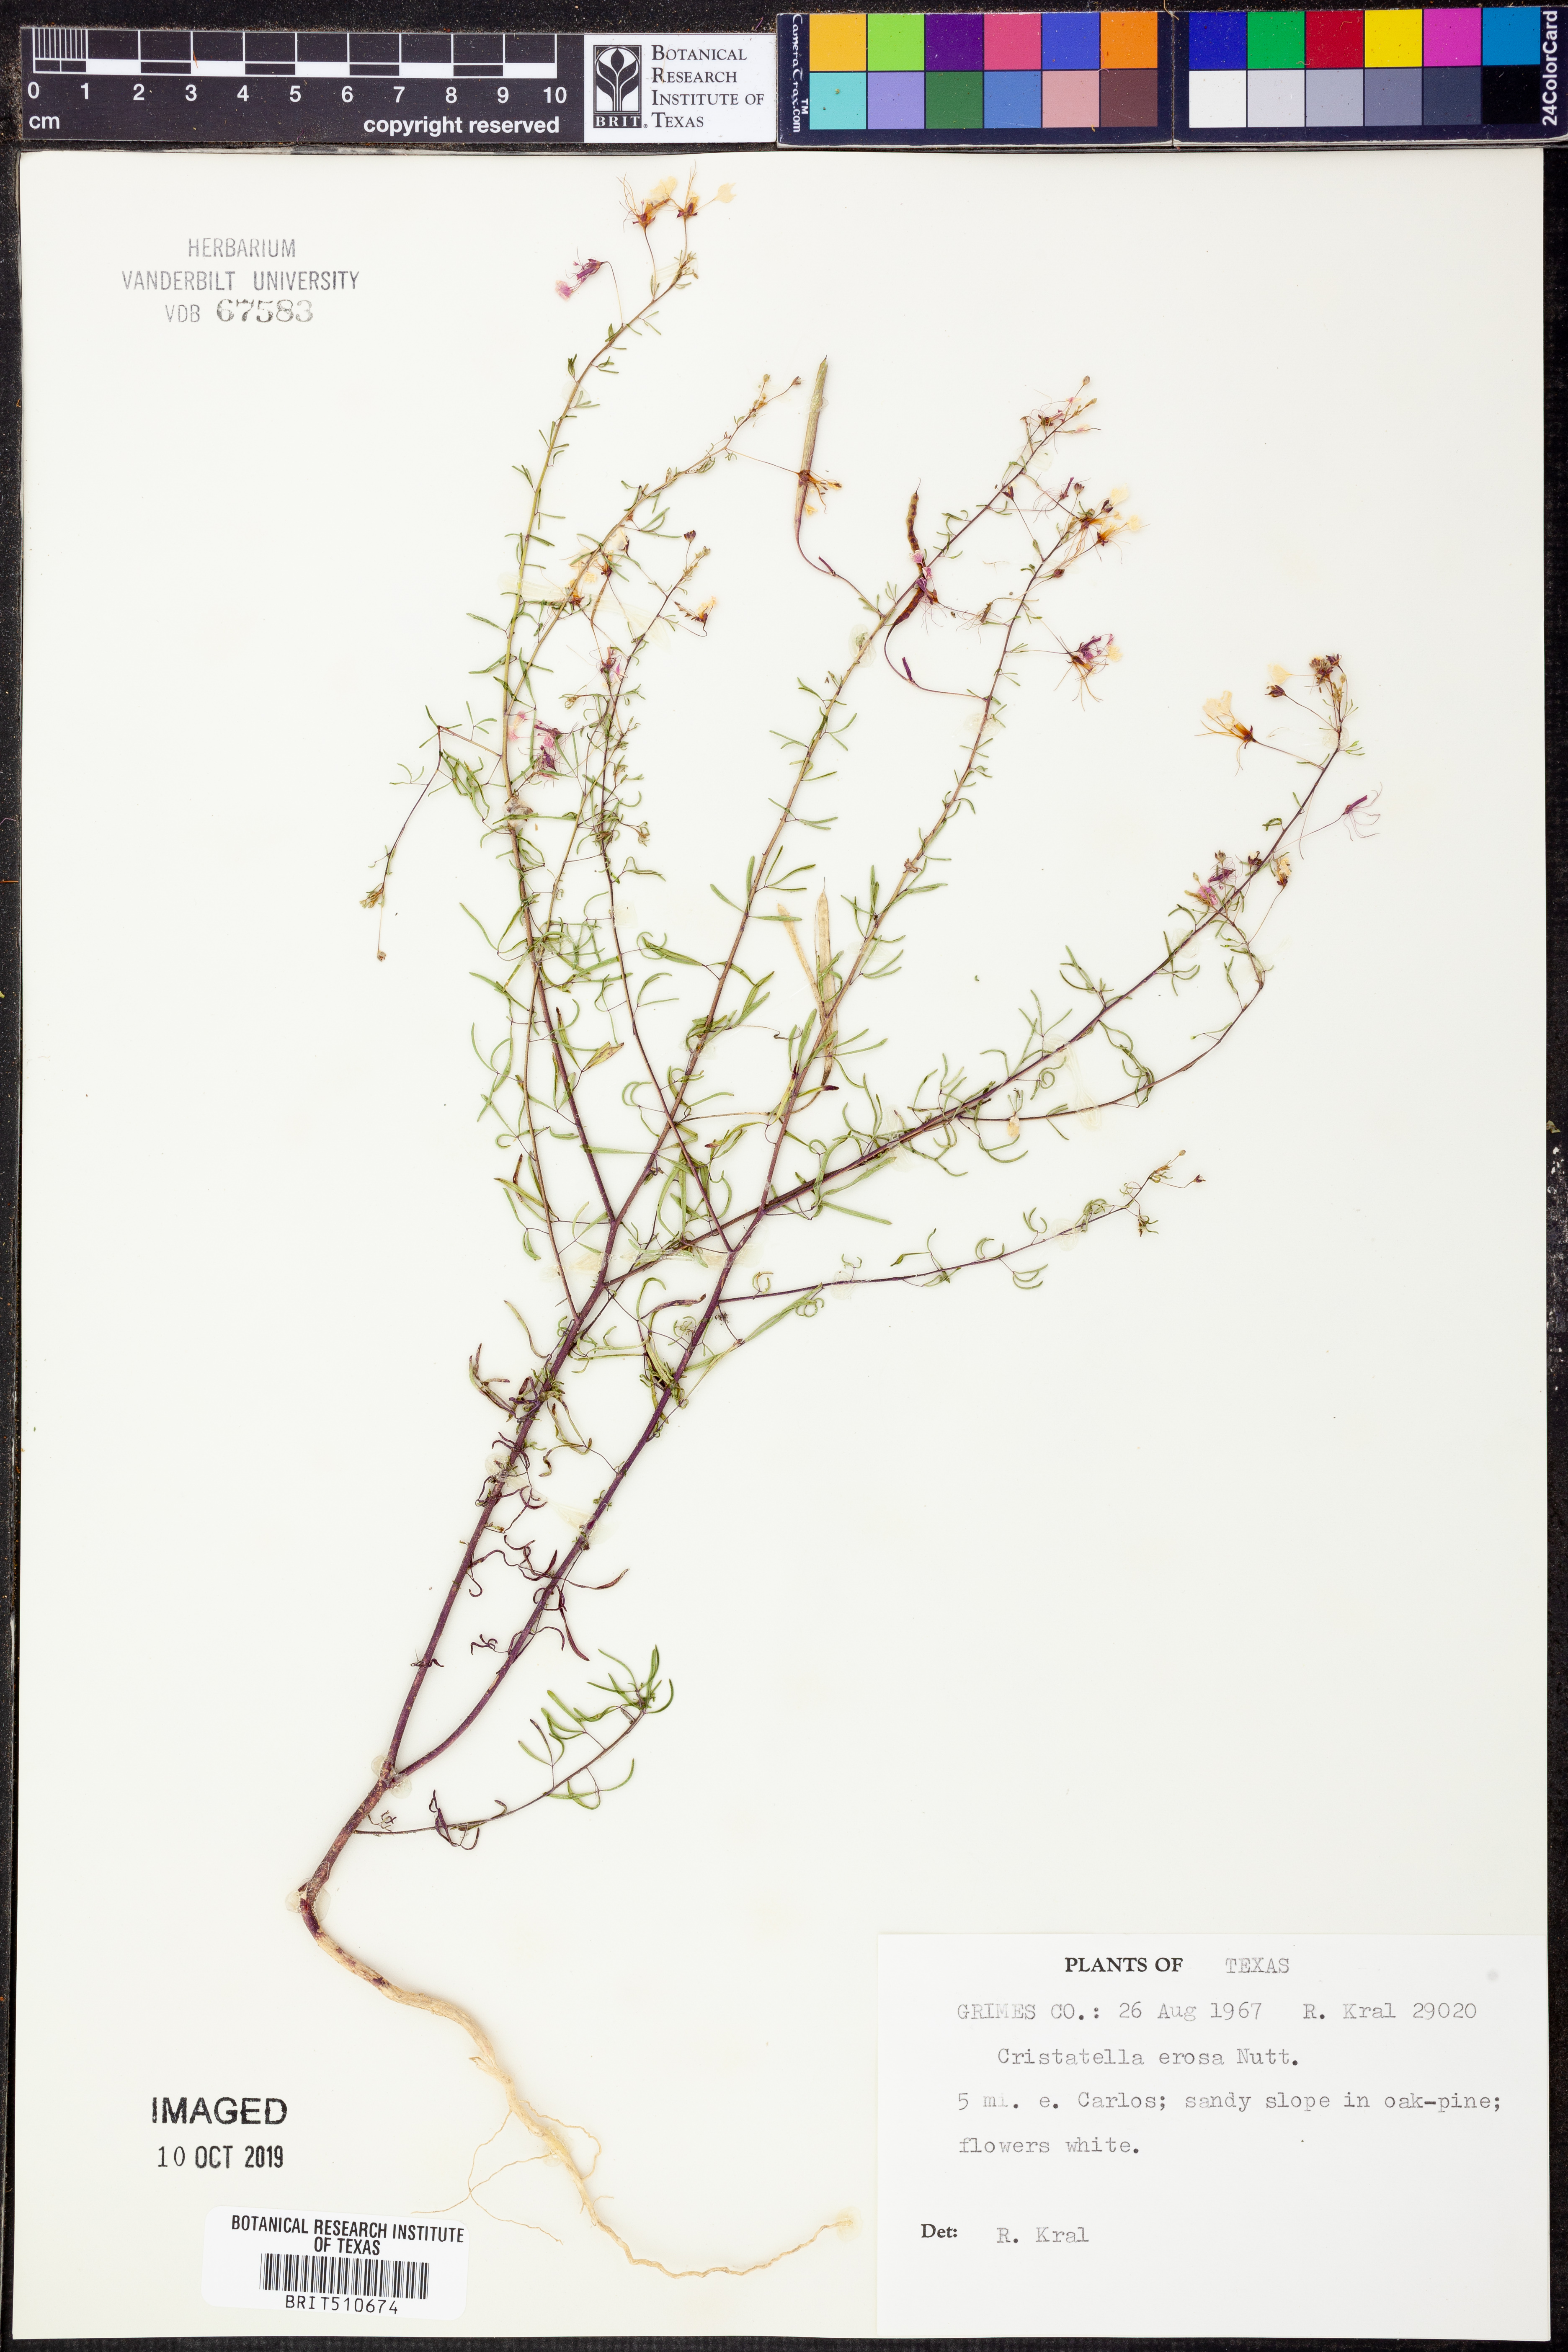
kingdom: Plantae
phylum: Tracheophyta
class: Magnoliopsida
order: Brassicales
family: Cleomaceae
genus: Polanisia
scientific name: Polanisia erosa
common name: Large clammyweed
